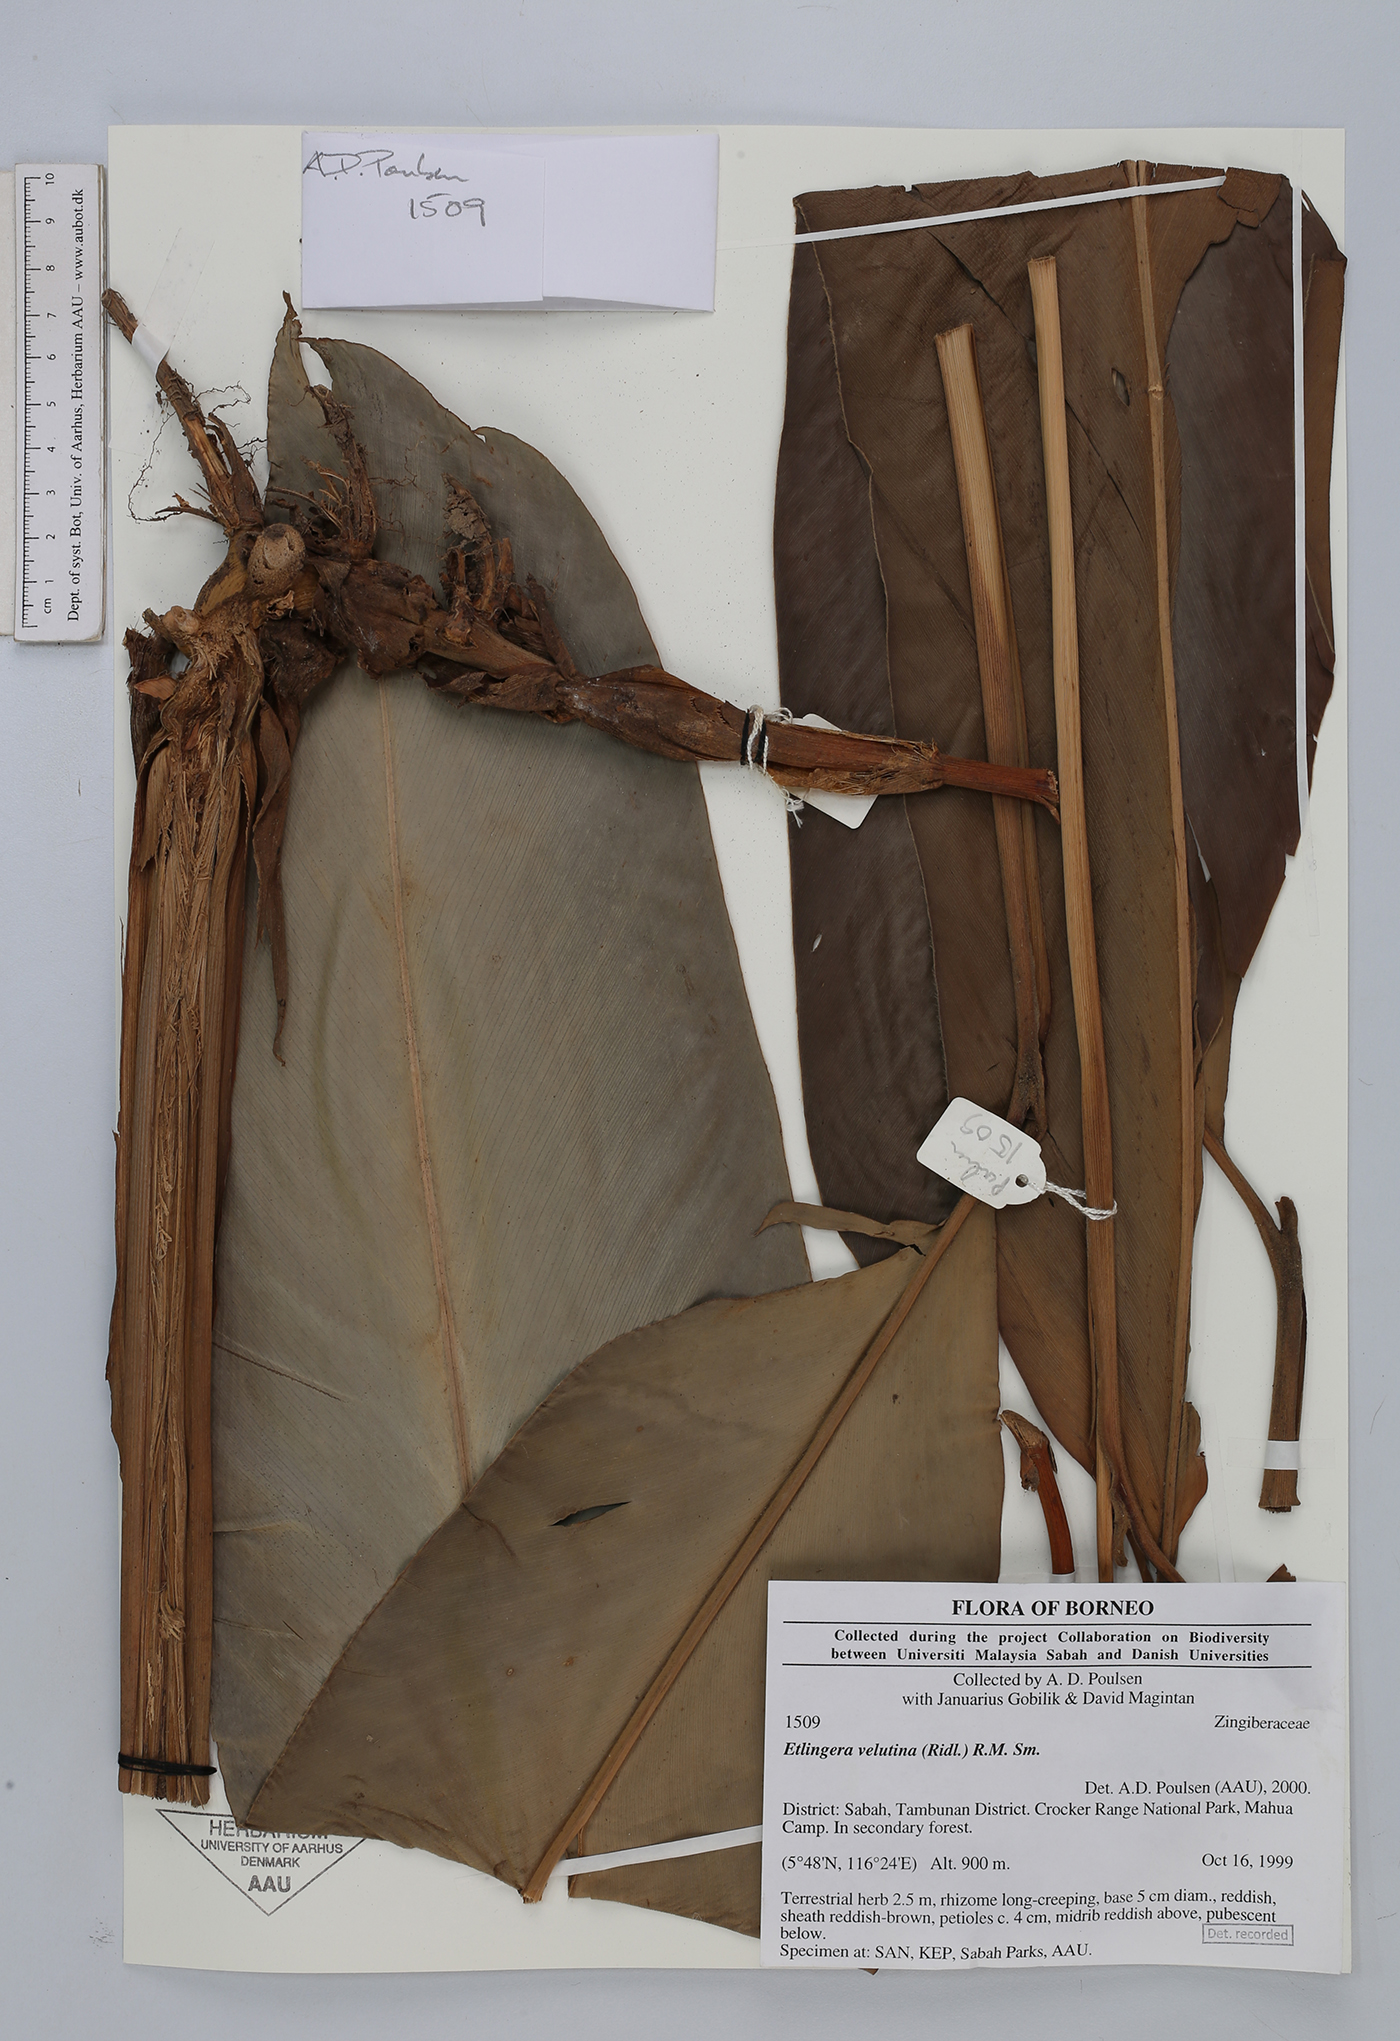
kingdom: Plantae
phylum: Tracheophyta
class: Liliopsida
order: Zingiberales
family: Zingiberaceae
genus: Etlingera
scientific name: Etlingera velutina
